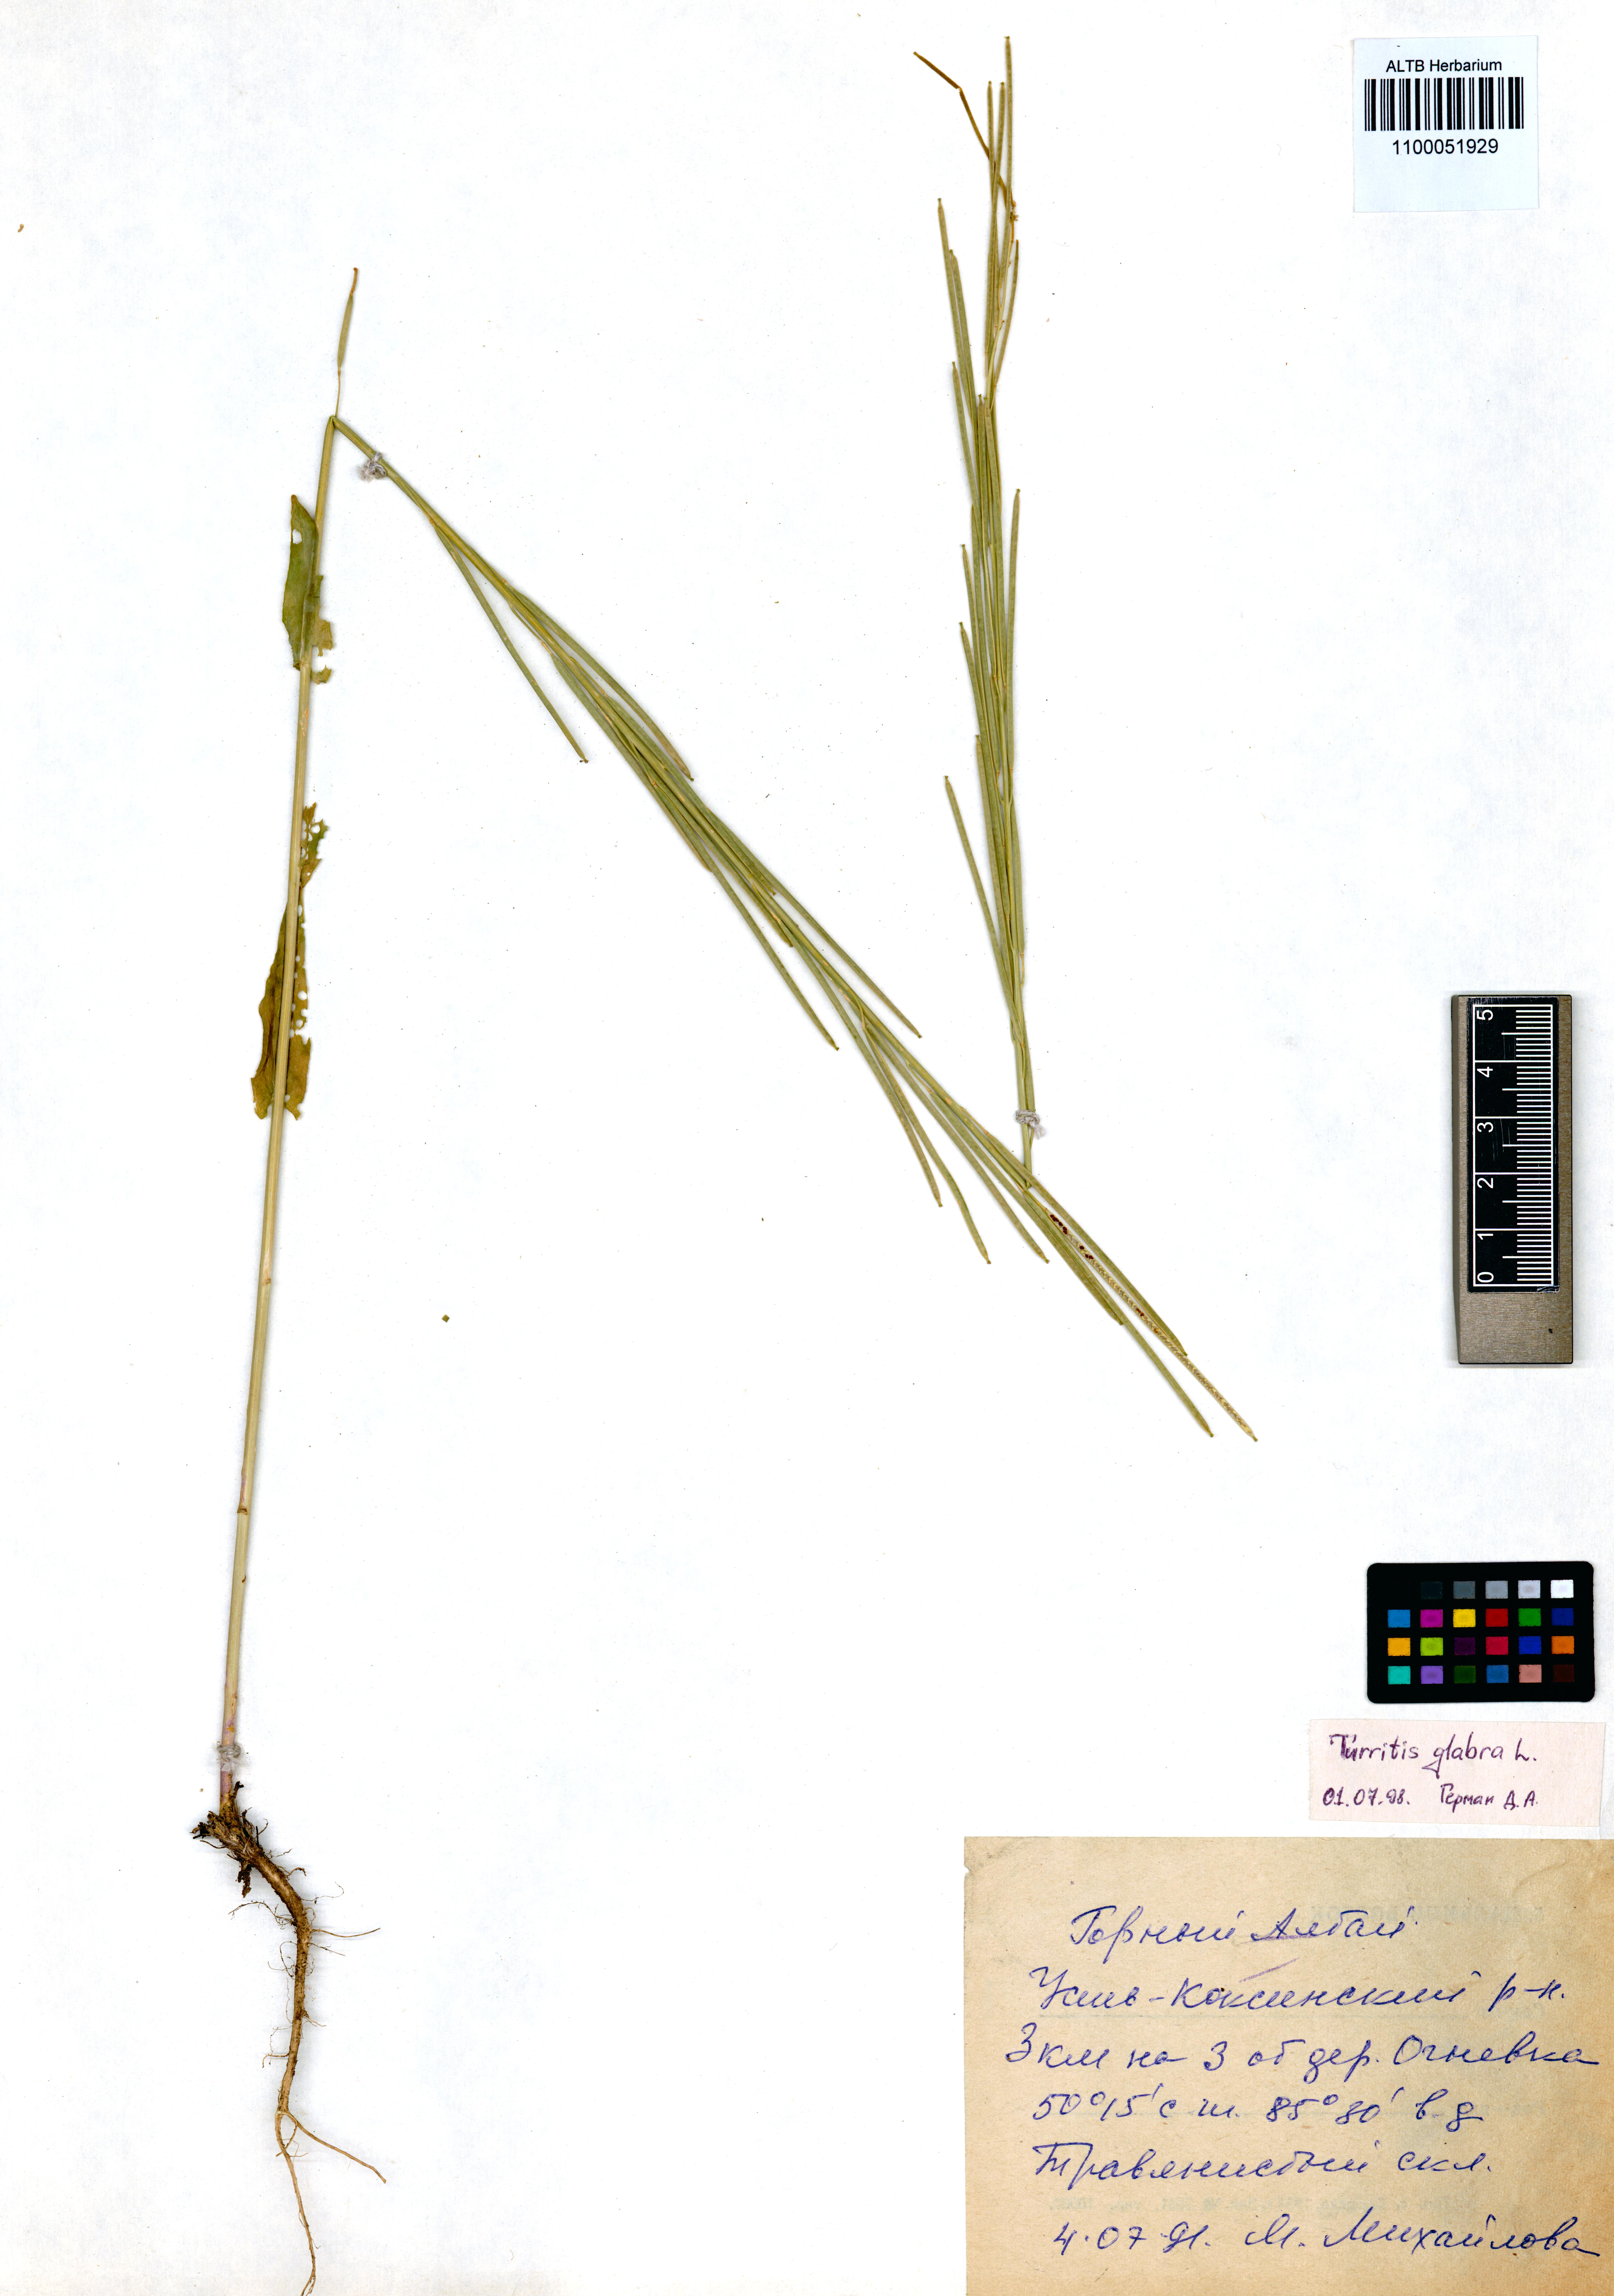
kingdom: Plantae
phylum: Tracheophyta
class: Magnoliopsida
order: Brassicales
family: Brassicaceae
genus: Turritis
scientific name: Turritis glabra
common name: Tower rockcress
